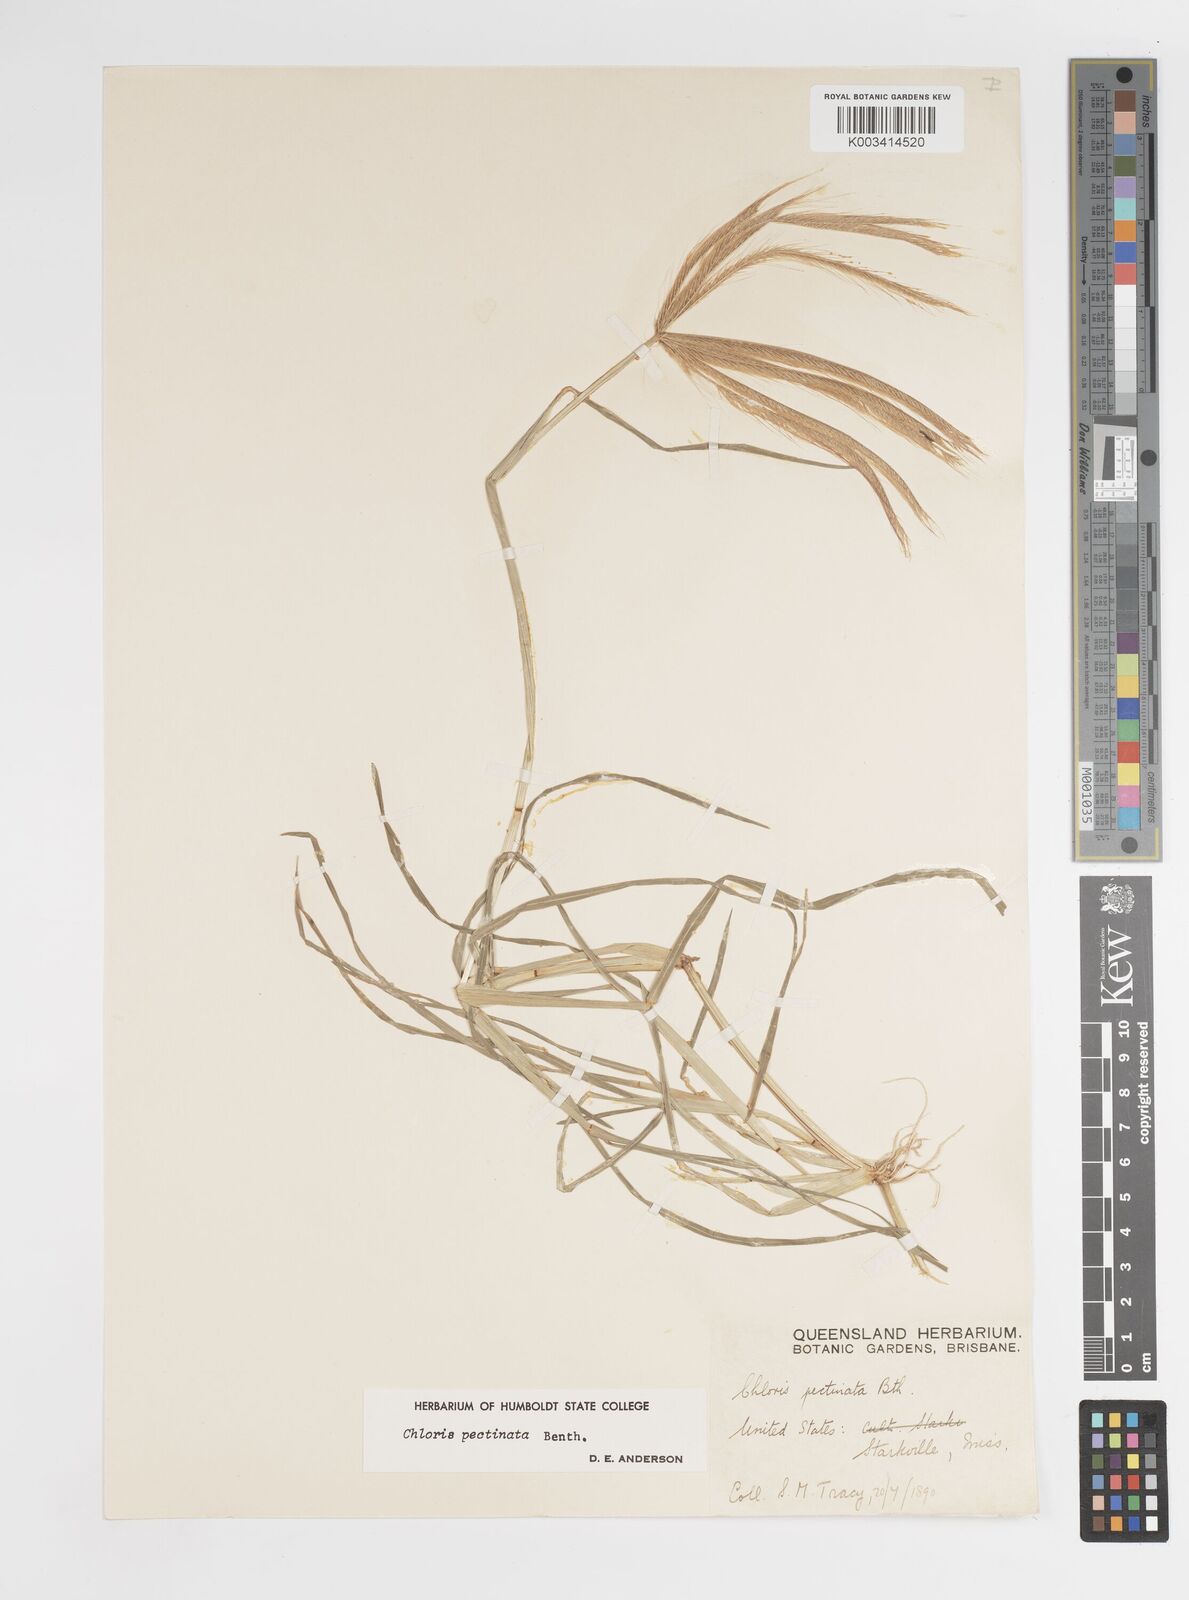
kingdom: Plantae
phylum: Tracheophyta
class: Liliopsida
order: Poales
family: Poaceae
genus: Chloris
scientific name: Chloris pectinata
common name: Comb windmill grass
